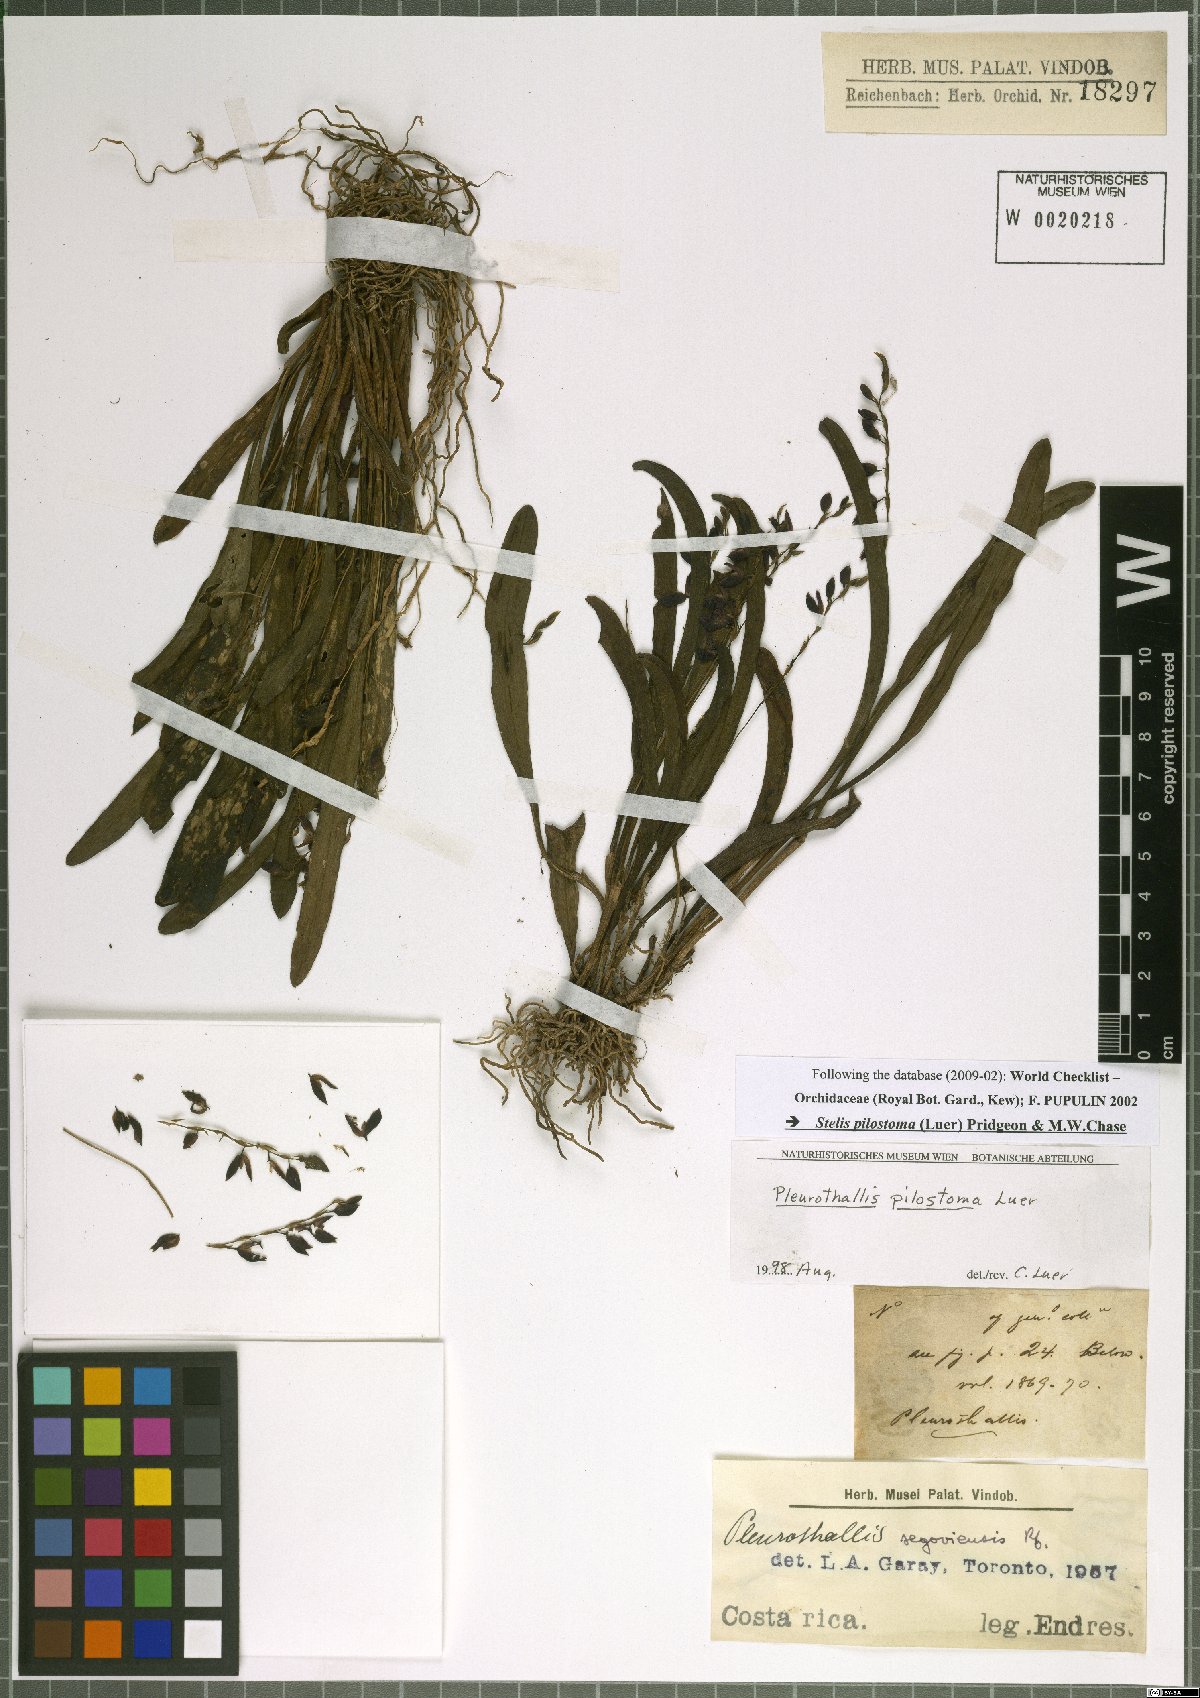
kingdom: Plantae
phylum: Tracheophyta
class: Liliopsida
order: Asparagales
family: Orchidaceae
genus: Stelis
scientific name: Stelis pilostoma
